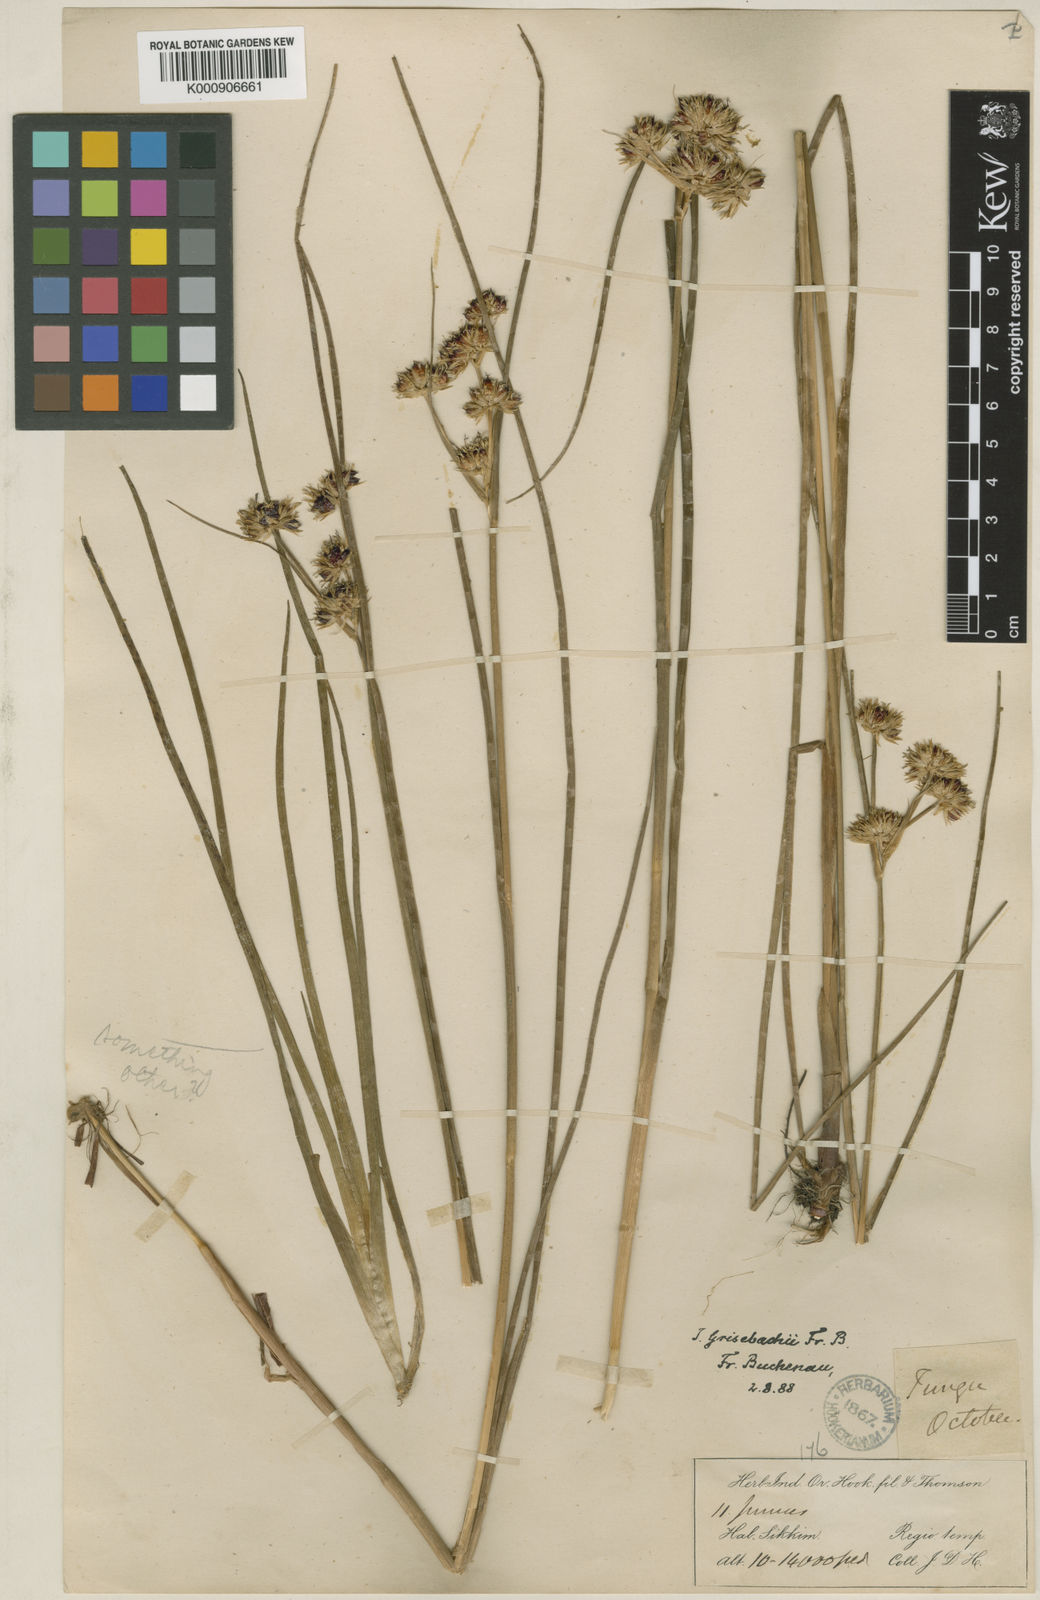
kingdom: Plantae
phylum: Tracheophyta
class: Liliopsida
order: Poales
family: Juncaceae
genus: Juncus
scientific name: Juncus grisebachii
